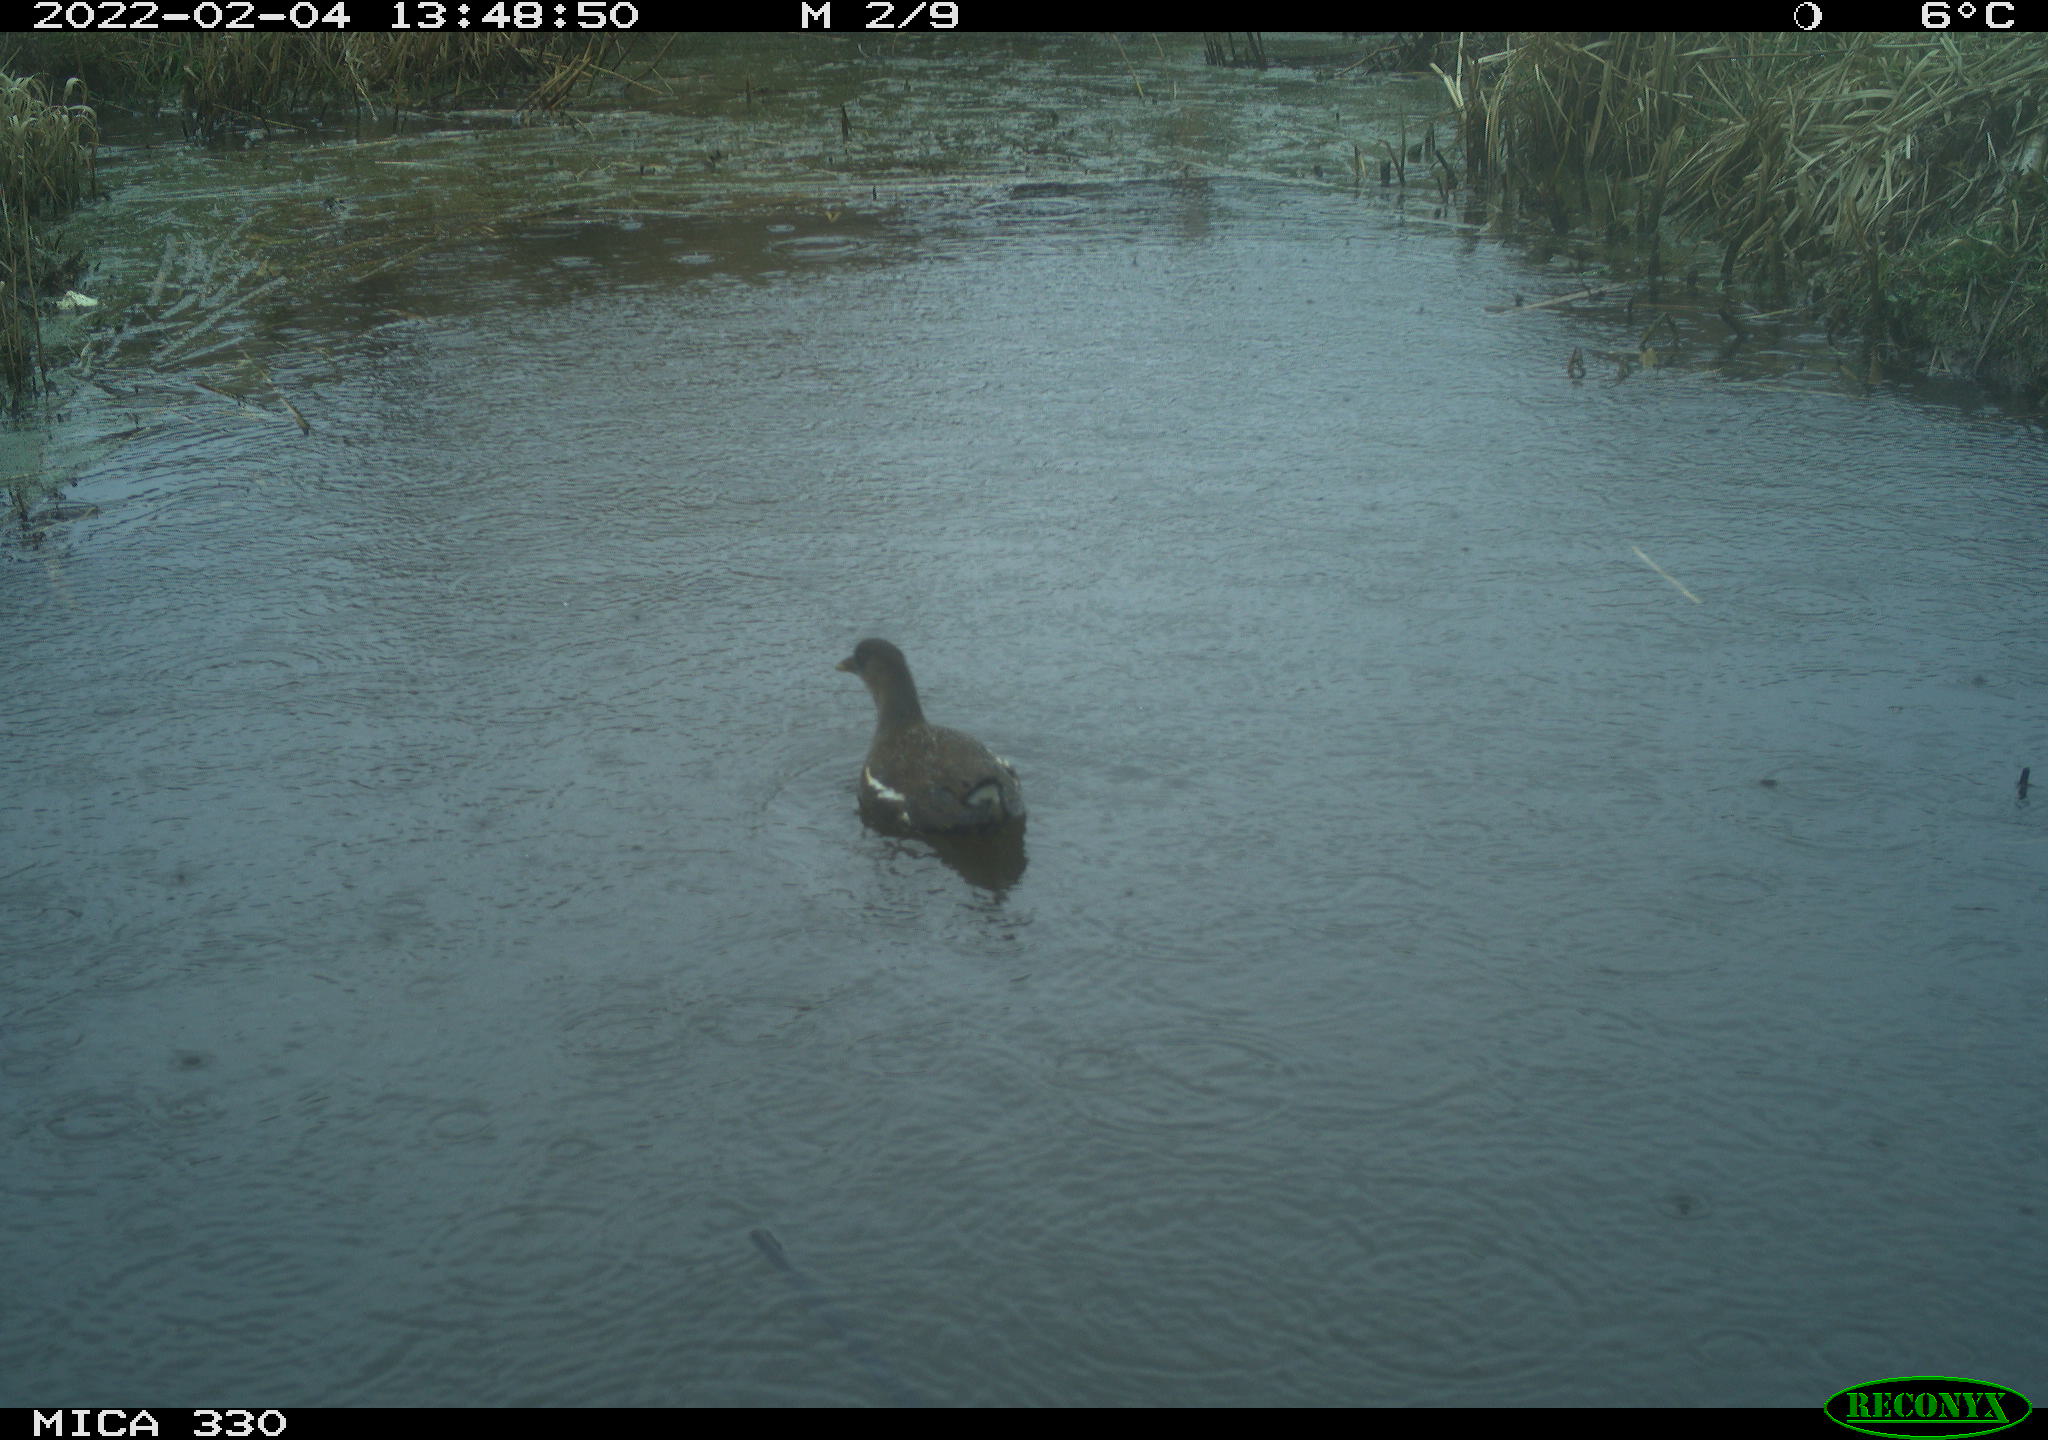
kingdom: Animalia
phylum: Chordata
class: Aves
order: Gruiformes
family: Rallidae
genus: Gallinula
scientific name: Gallinula chloropus
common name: Common moorhen
